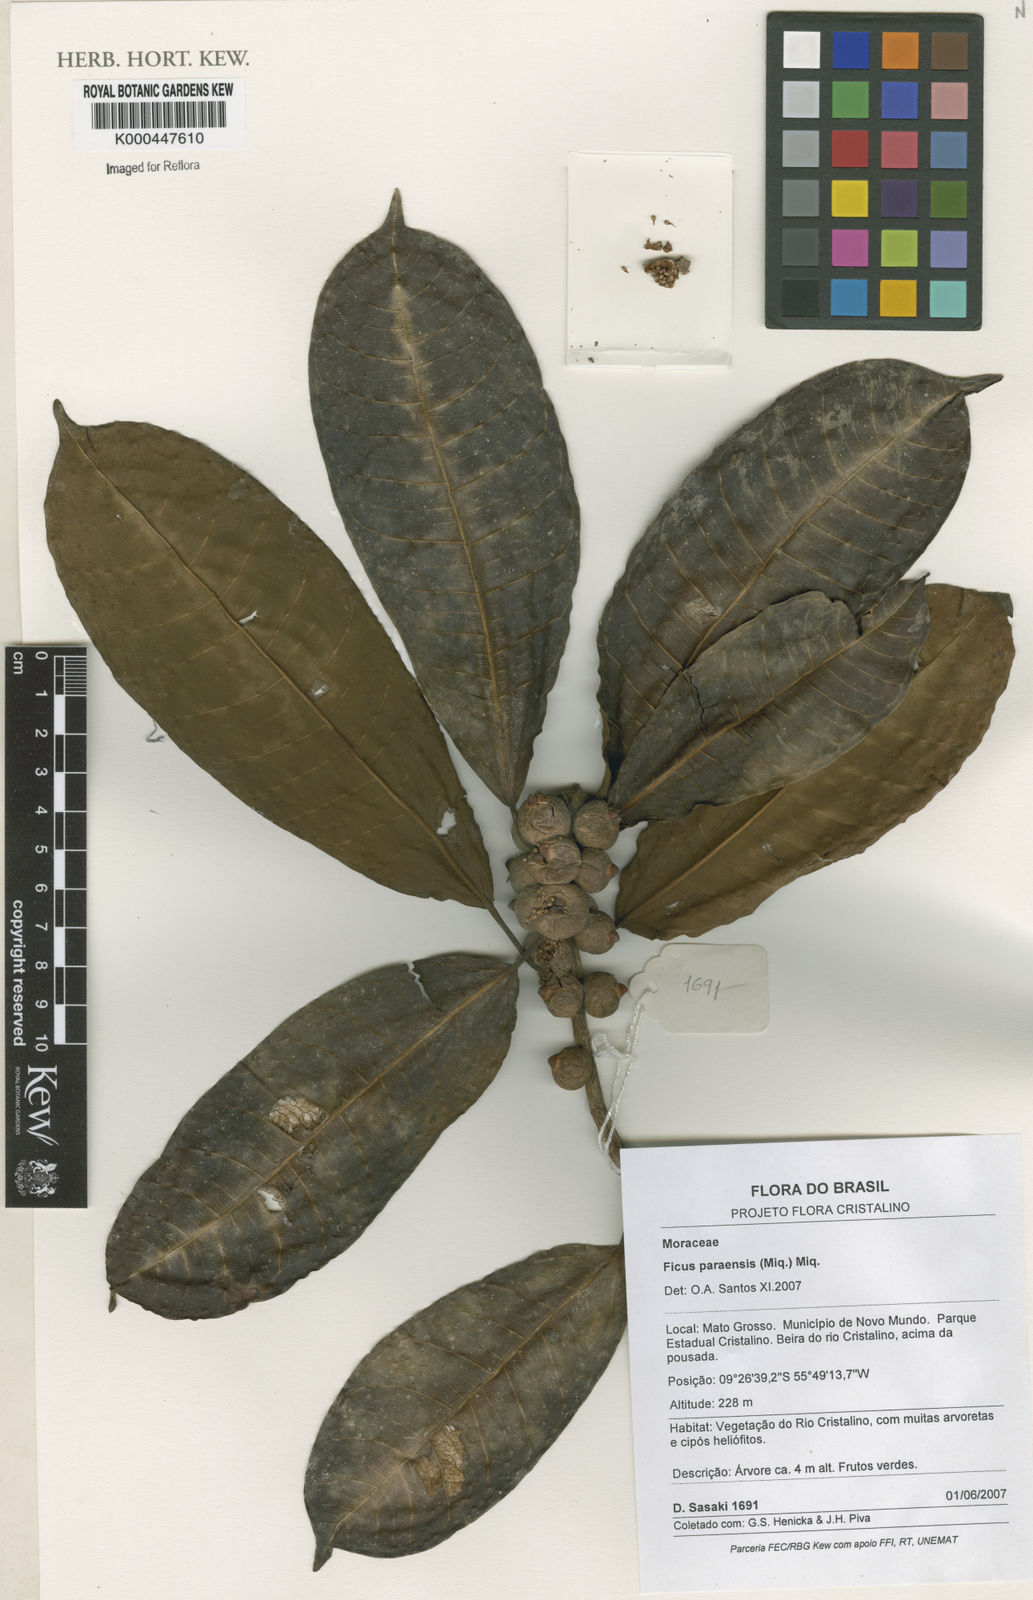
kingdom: Plantae
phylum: Tracheophyta
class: Magnoliopsida
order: Rosales
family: Moraceae
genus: Ficus
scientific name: Ficus paraensis
